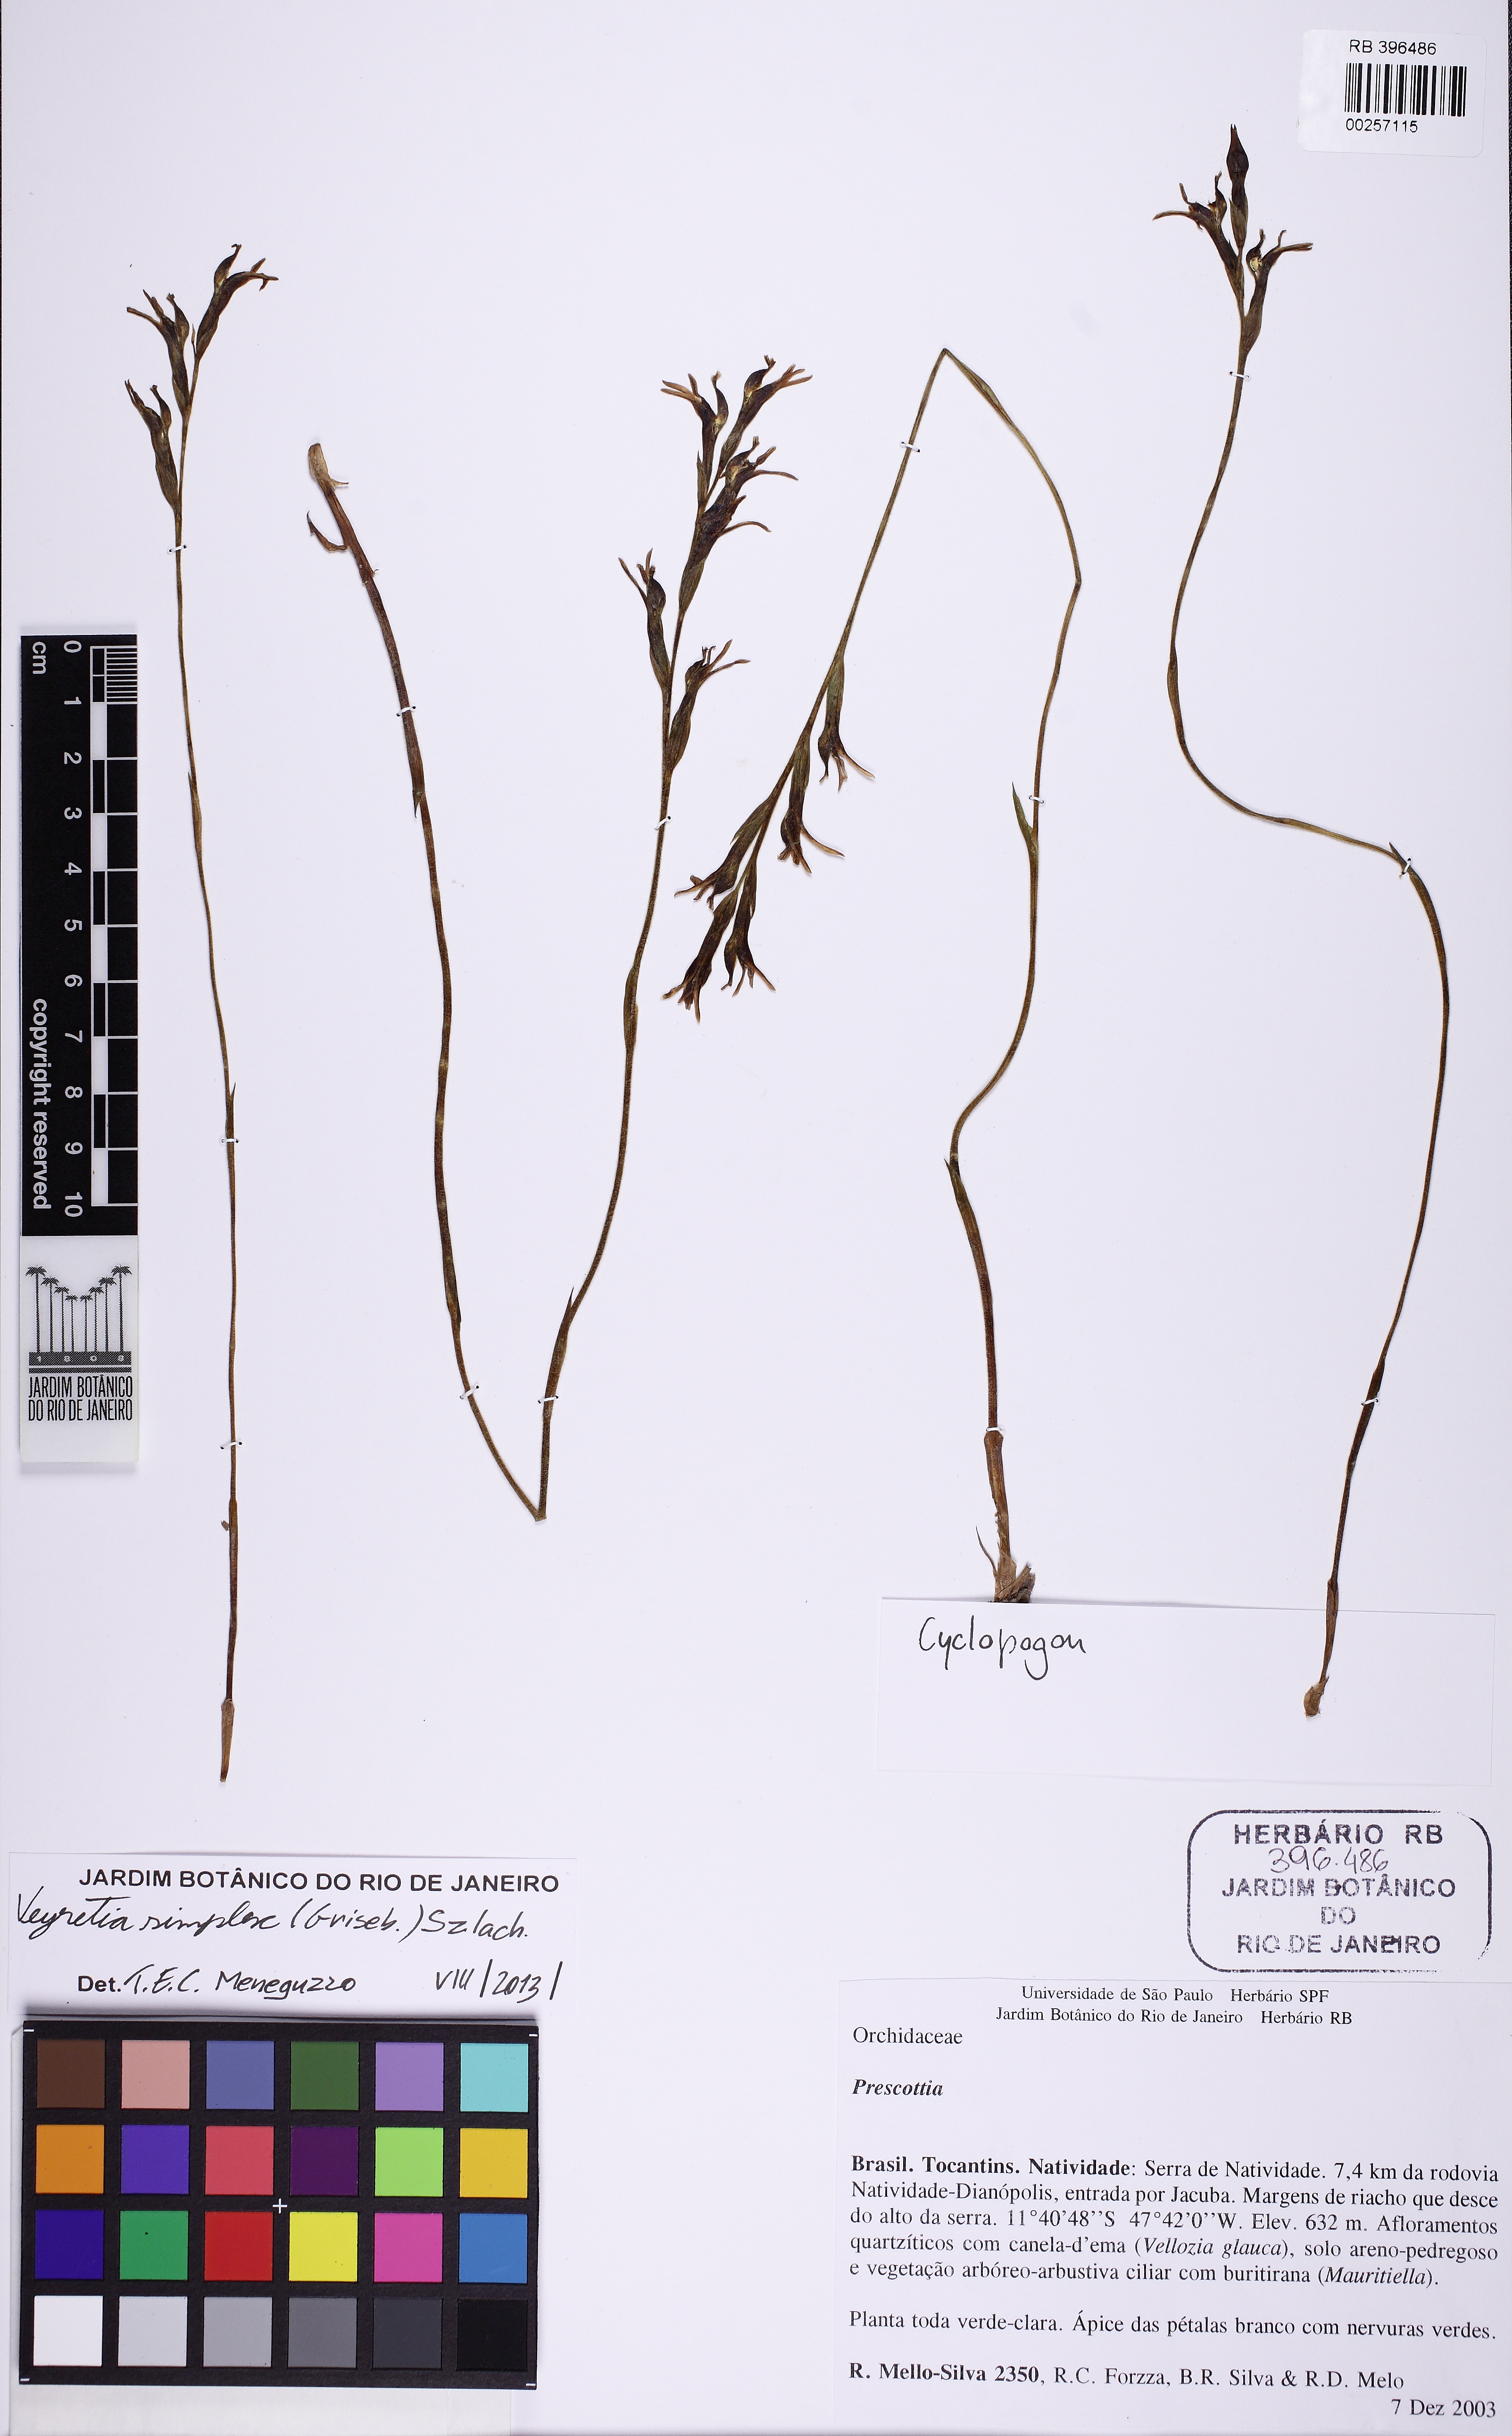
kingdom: Plantae
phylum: Tracheophyta
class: Liliopsida
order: Asparagales
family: Orchidaceae
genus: Veyretia
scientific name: Veyretia simplex
